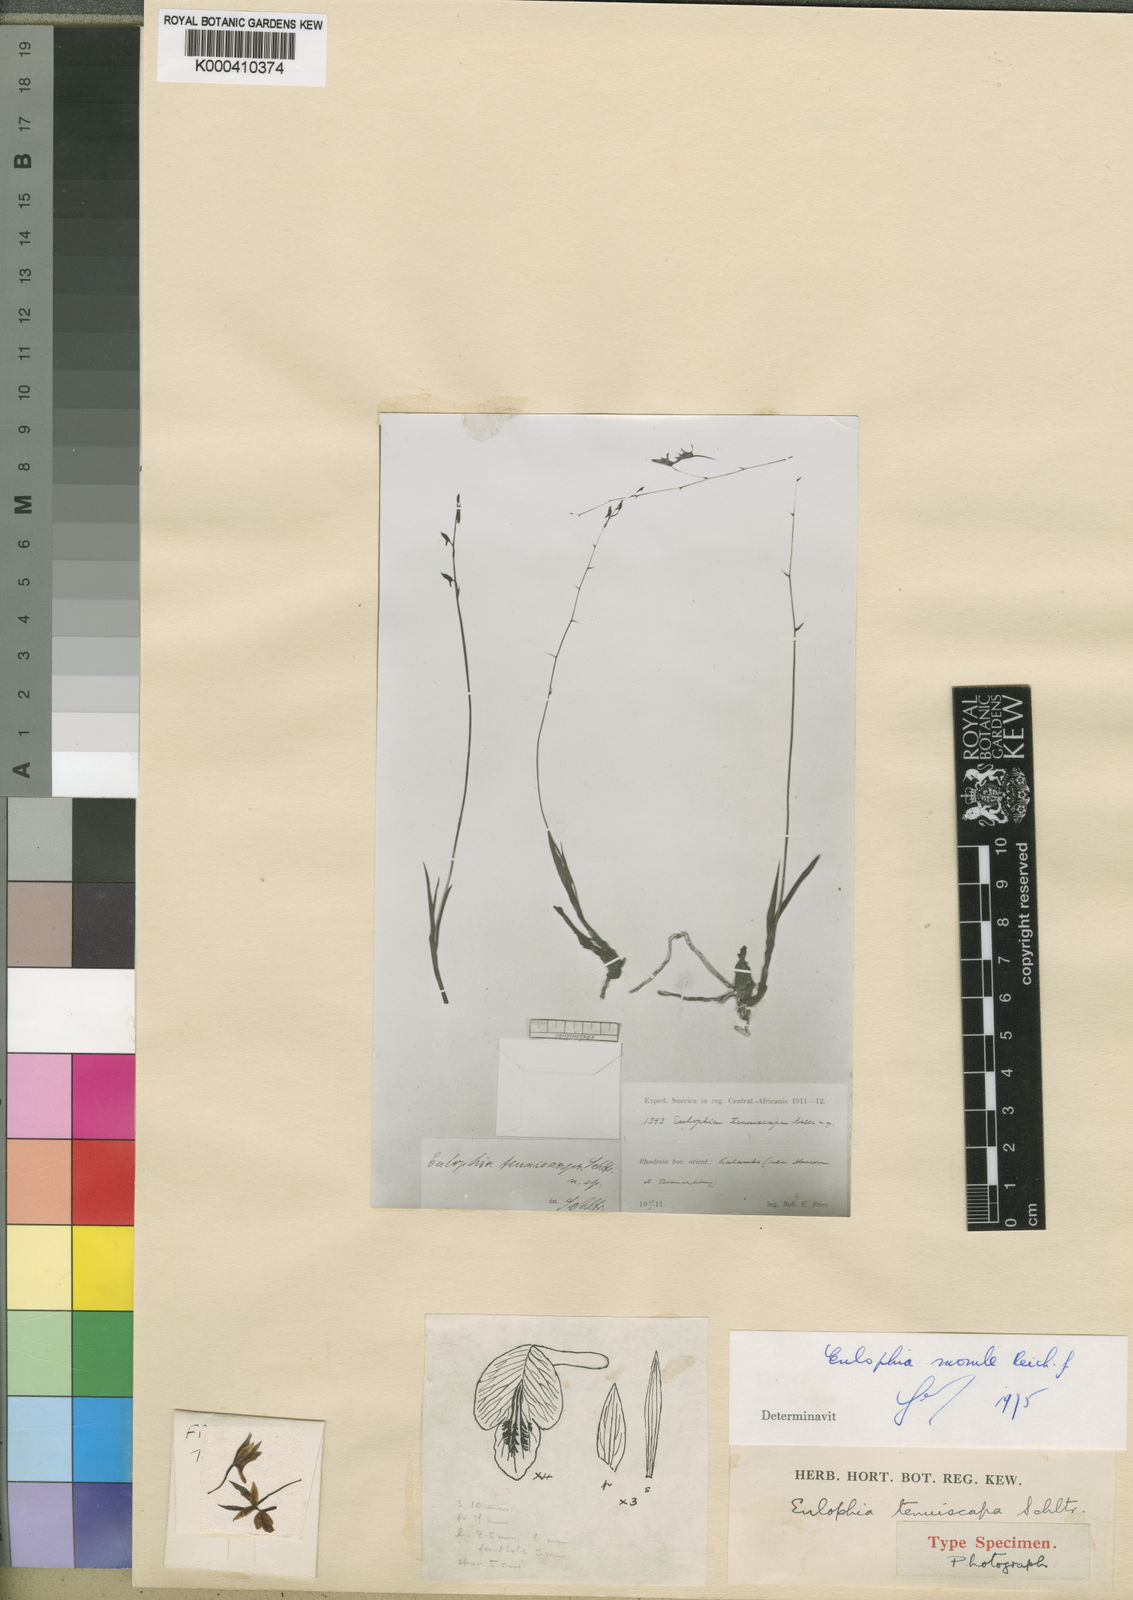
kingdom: Plantae
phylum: Tracheophyta
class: Liliopsida
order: Asparagales
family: Orchidaceae
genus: Eulophia
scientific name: Eulophia seleensis
